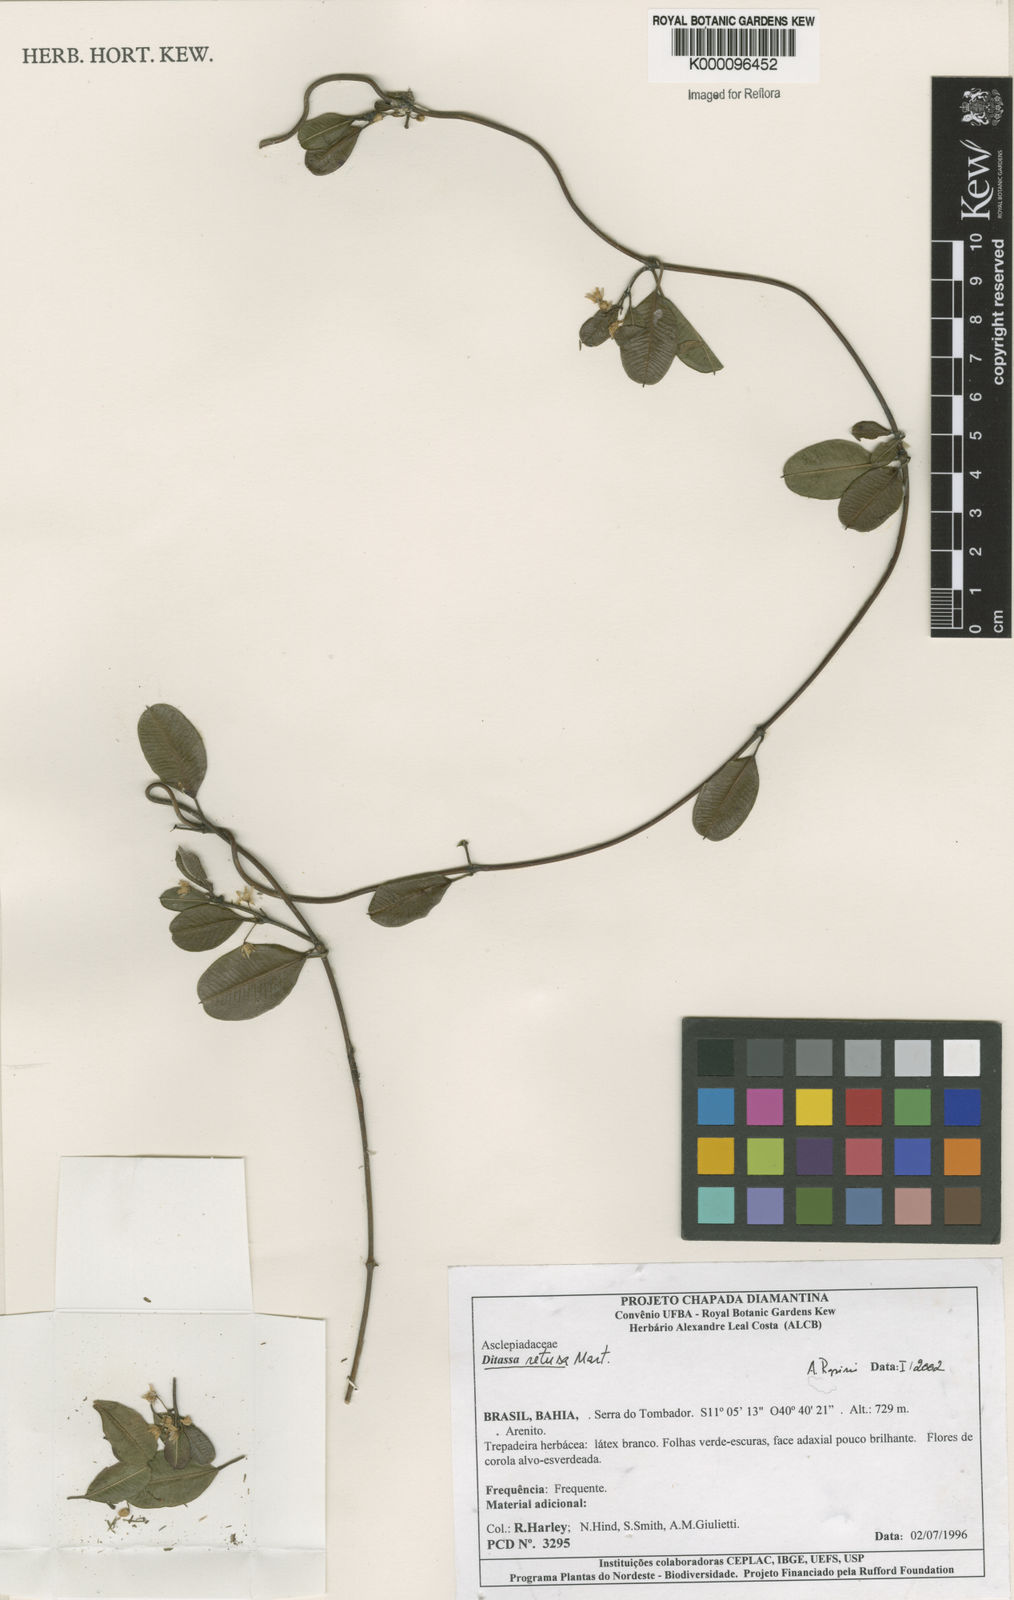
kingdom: Plantae
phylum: Tracheophyta
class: Magnoliopsida
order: Gentianales
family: Apocynaceae
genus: Ditassa
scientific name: Ditassa retusa
